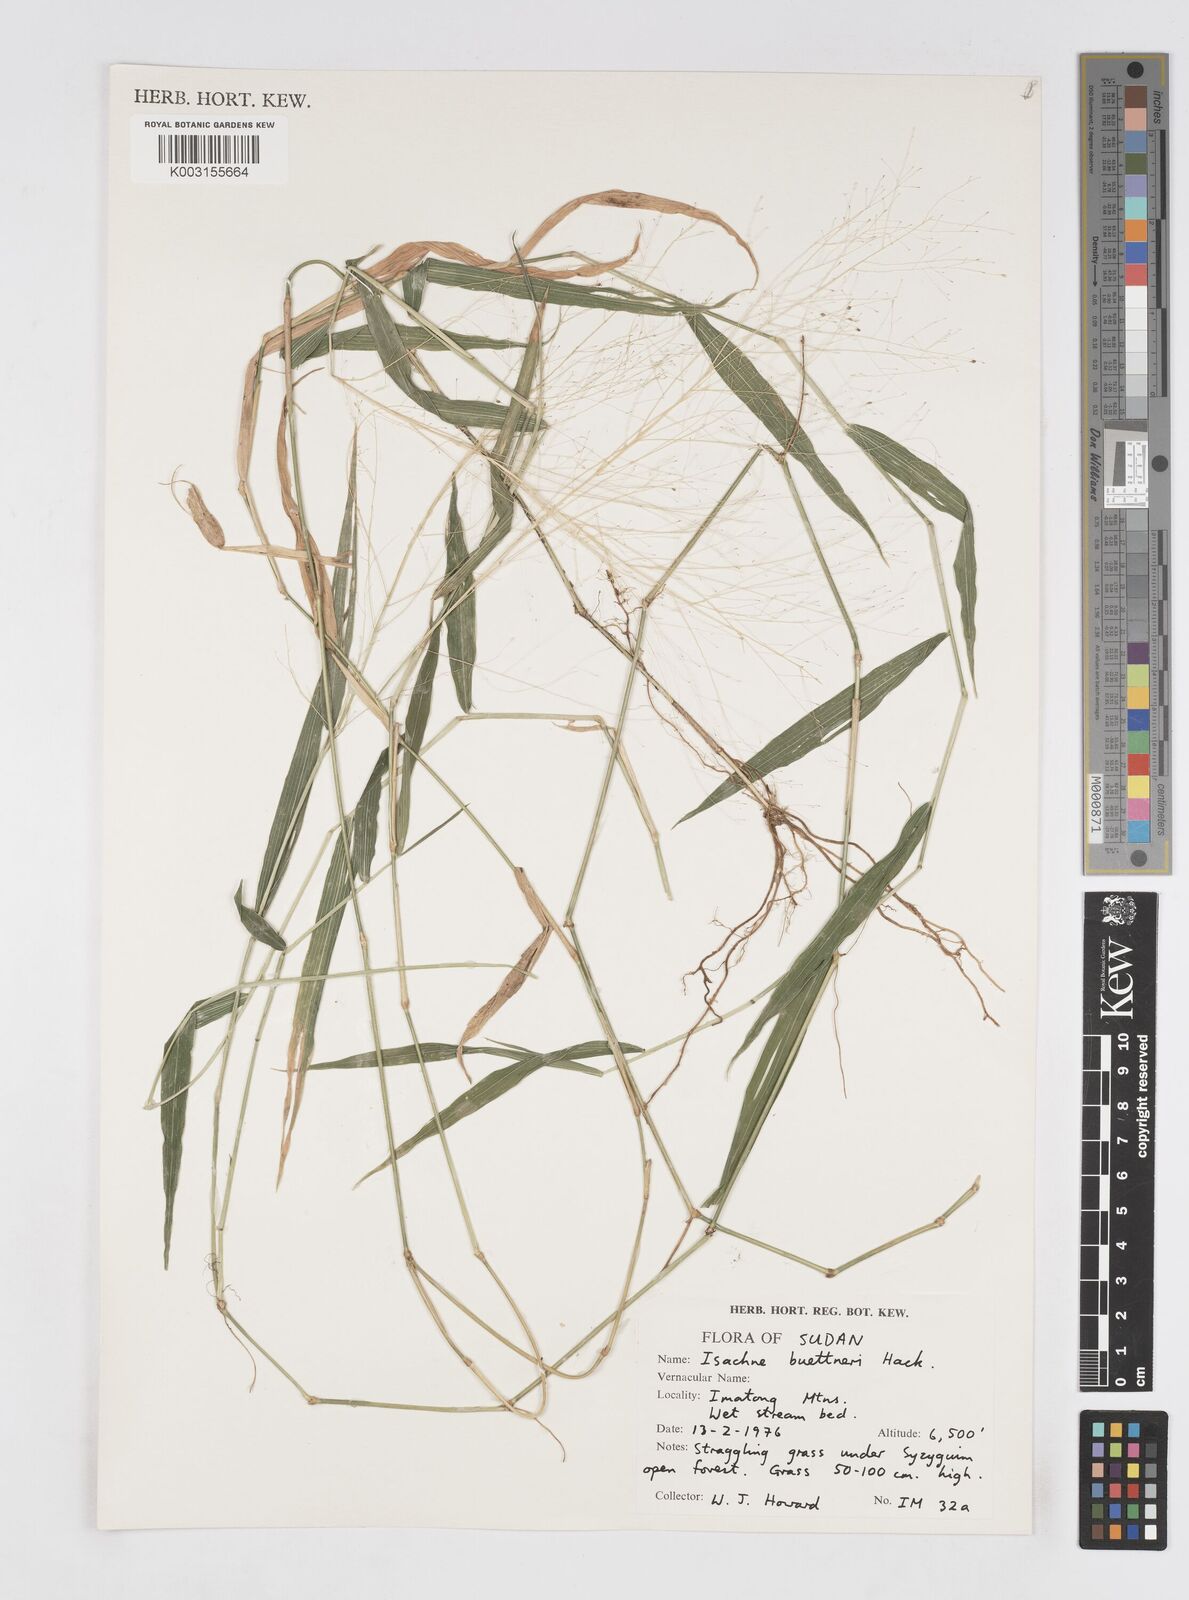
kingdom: Plantae
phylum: Tracheophyta
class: Liliopsida
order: Poales
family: Poaceae
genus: Isachne
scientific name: Isachne albens
